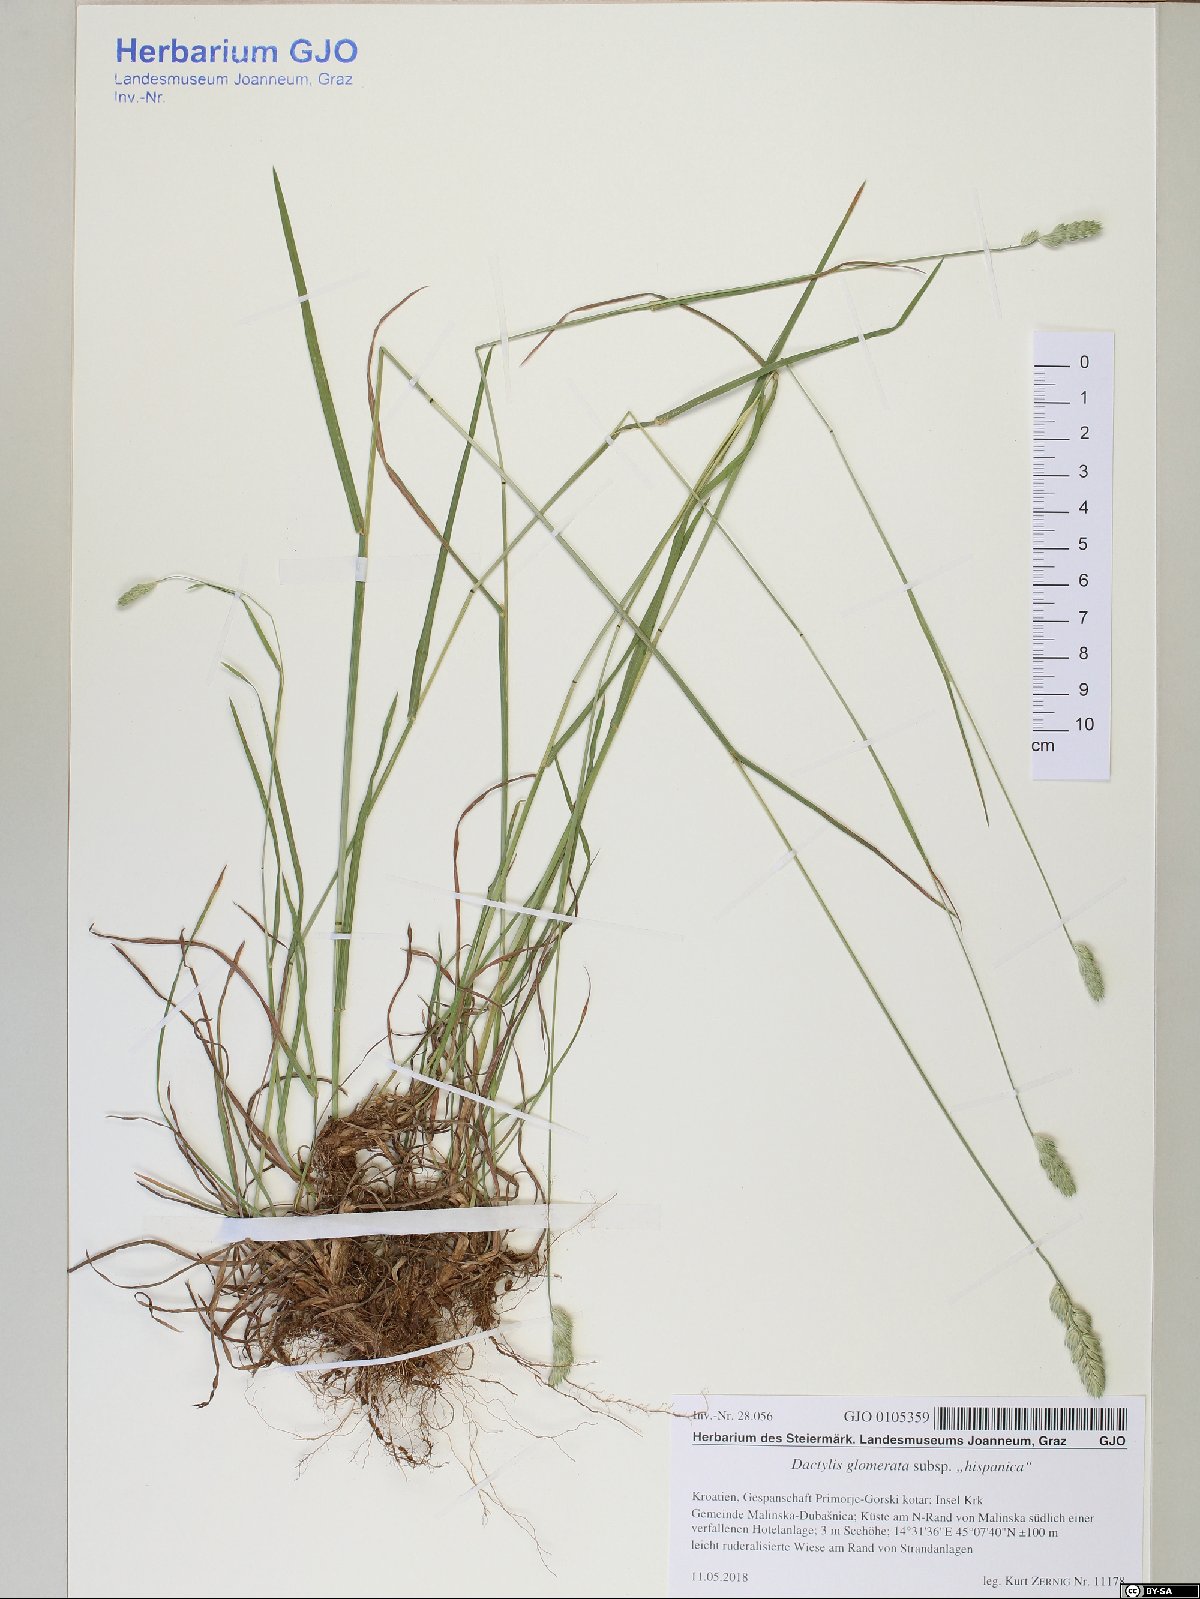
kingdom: Plantae
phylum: Tracheophyta
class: Liliopsida
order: Poales
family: Poaceae
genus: Dactylis
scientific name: Dactylis glomerata
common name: Orchardgrass
